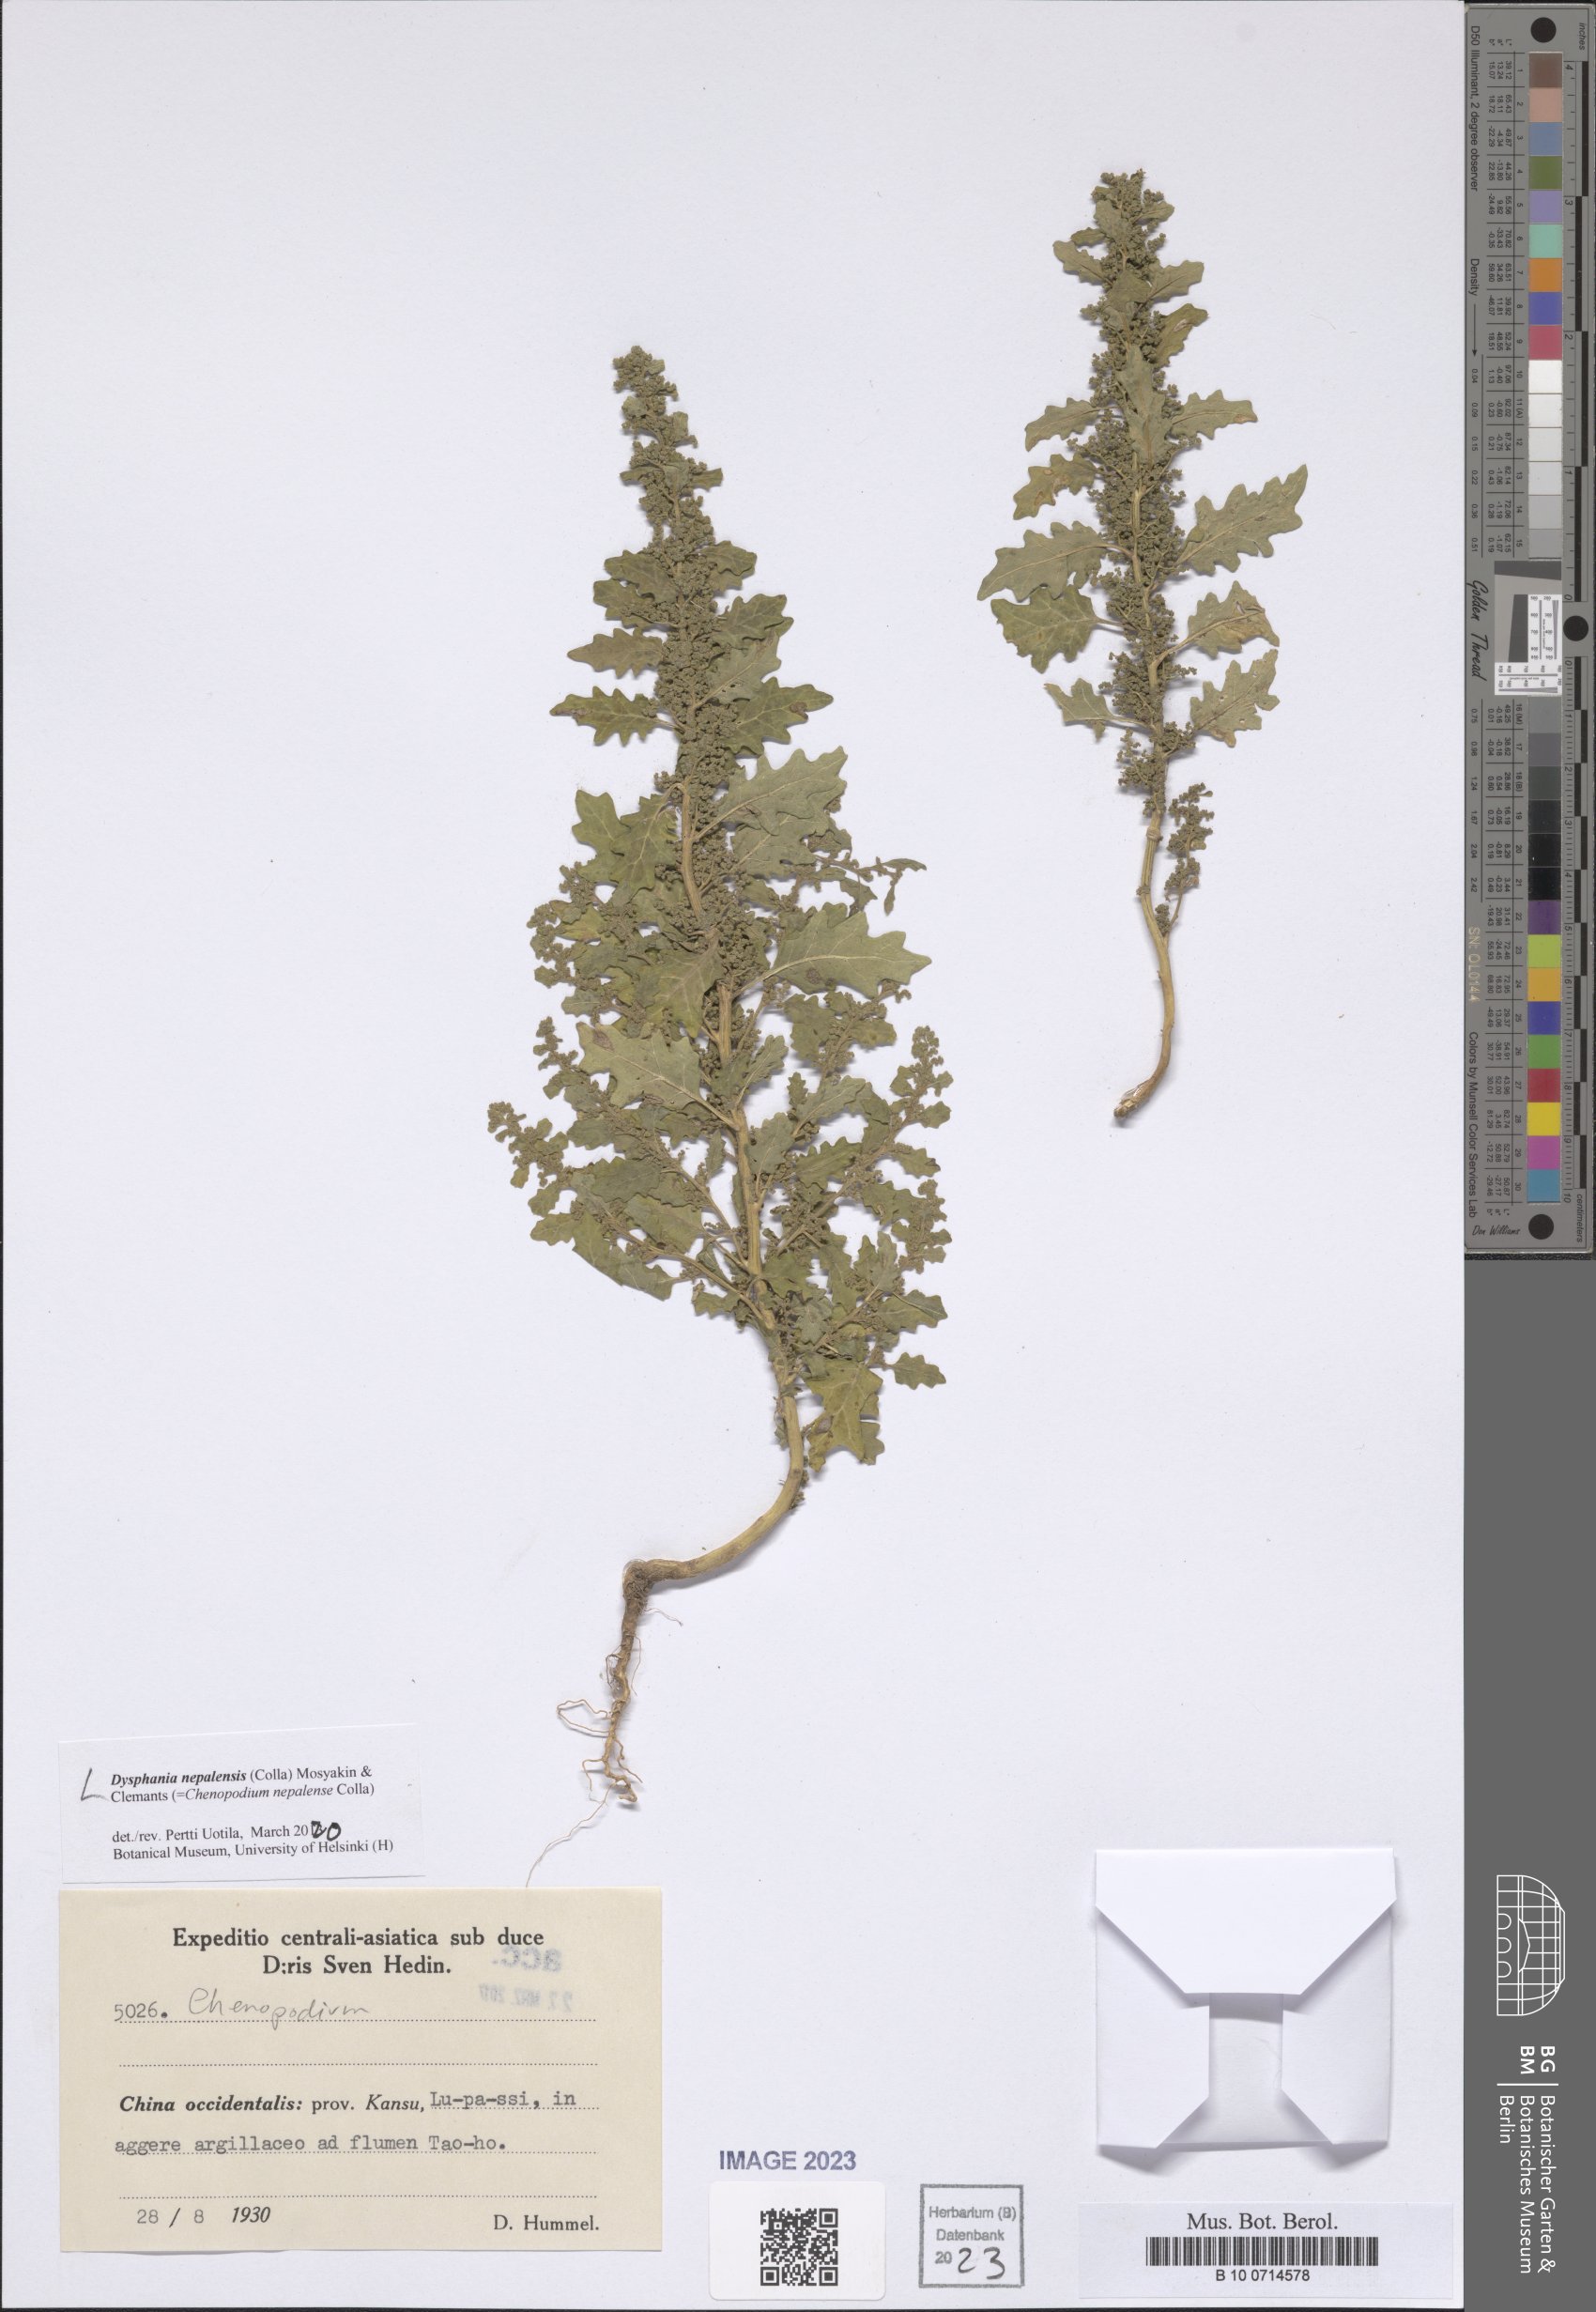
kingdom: Plantae
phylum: Tracheophyta
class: Magnoliopsida
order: Caryophyllales
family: Amaranthaceae
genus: Dysphania
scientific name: Dysphania nepalensis
